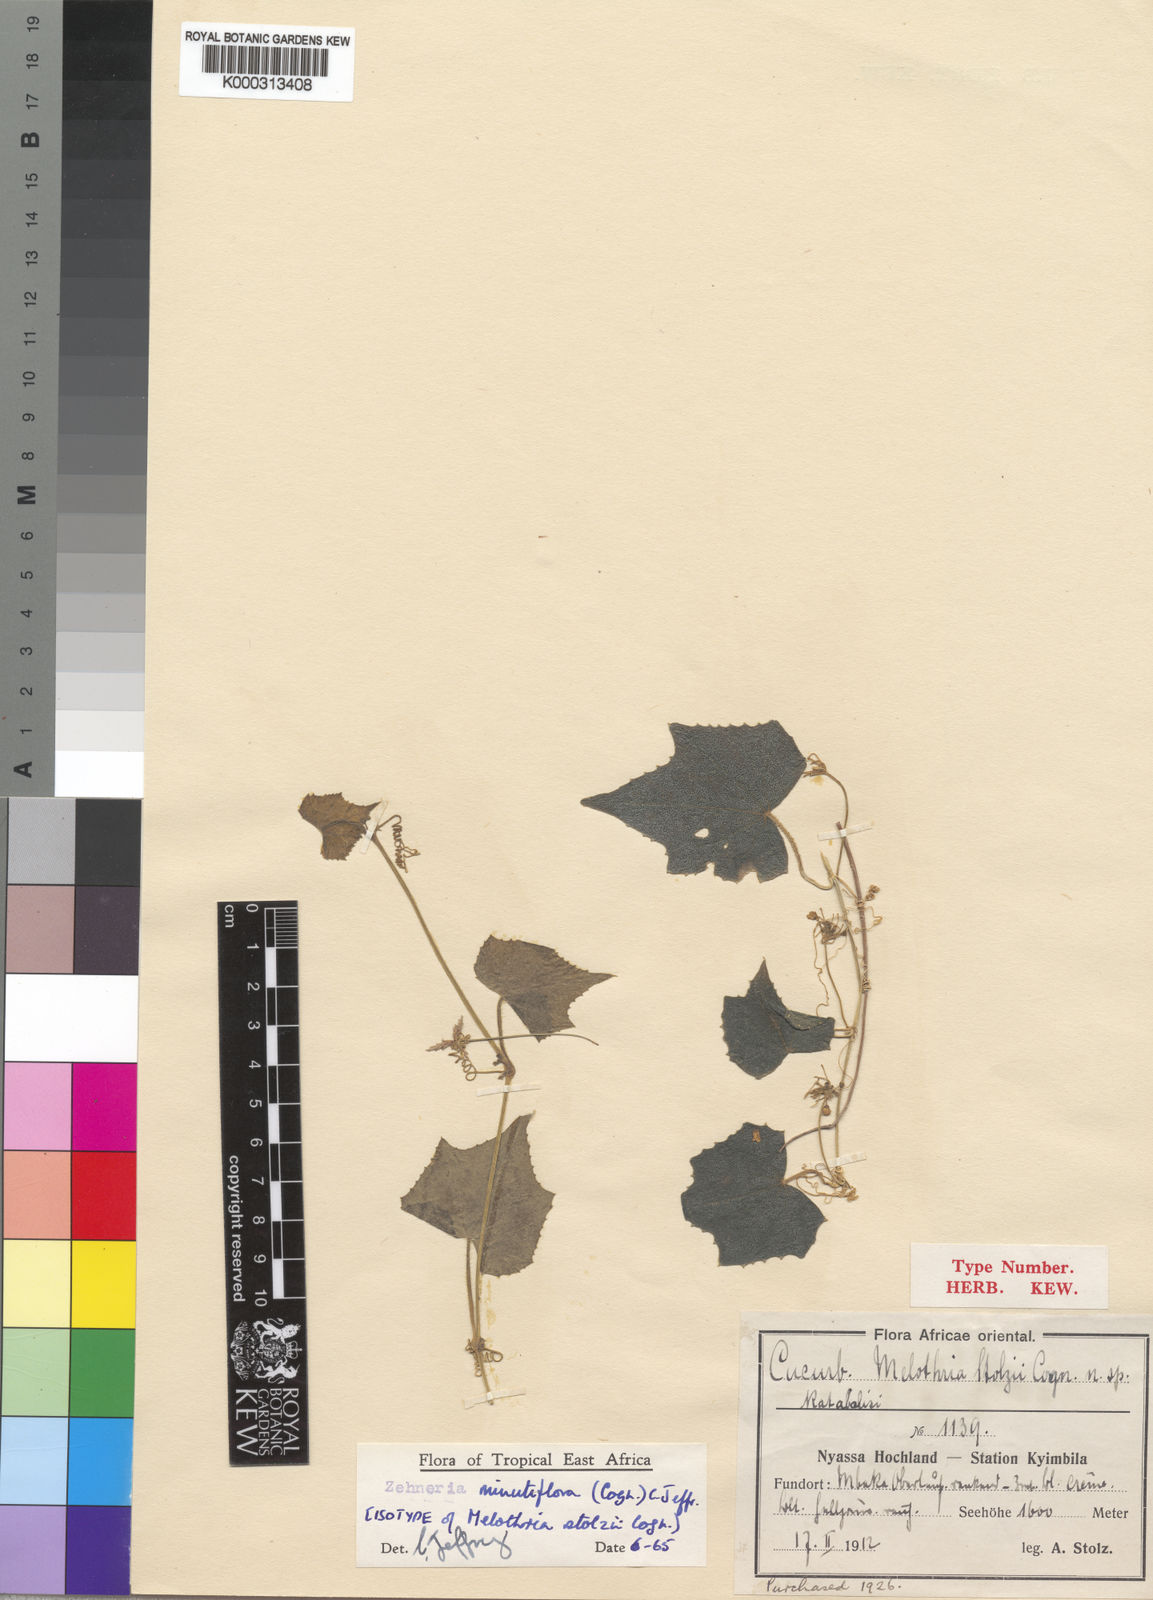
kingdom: Plantae
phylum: Tracheophyta
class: Magnoliopsida
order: Cucurbitales
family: Cucurbitaceae
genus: Zehneria
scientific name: Zehneria minutiflora
